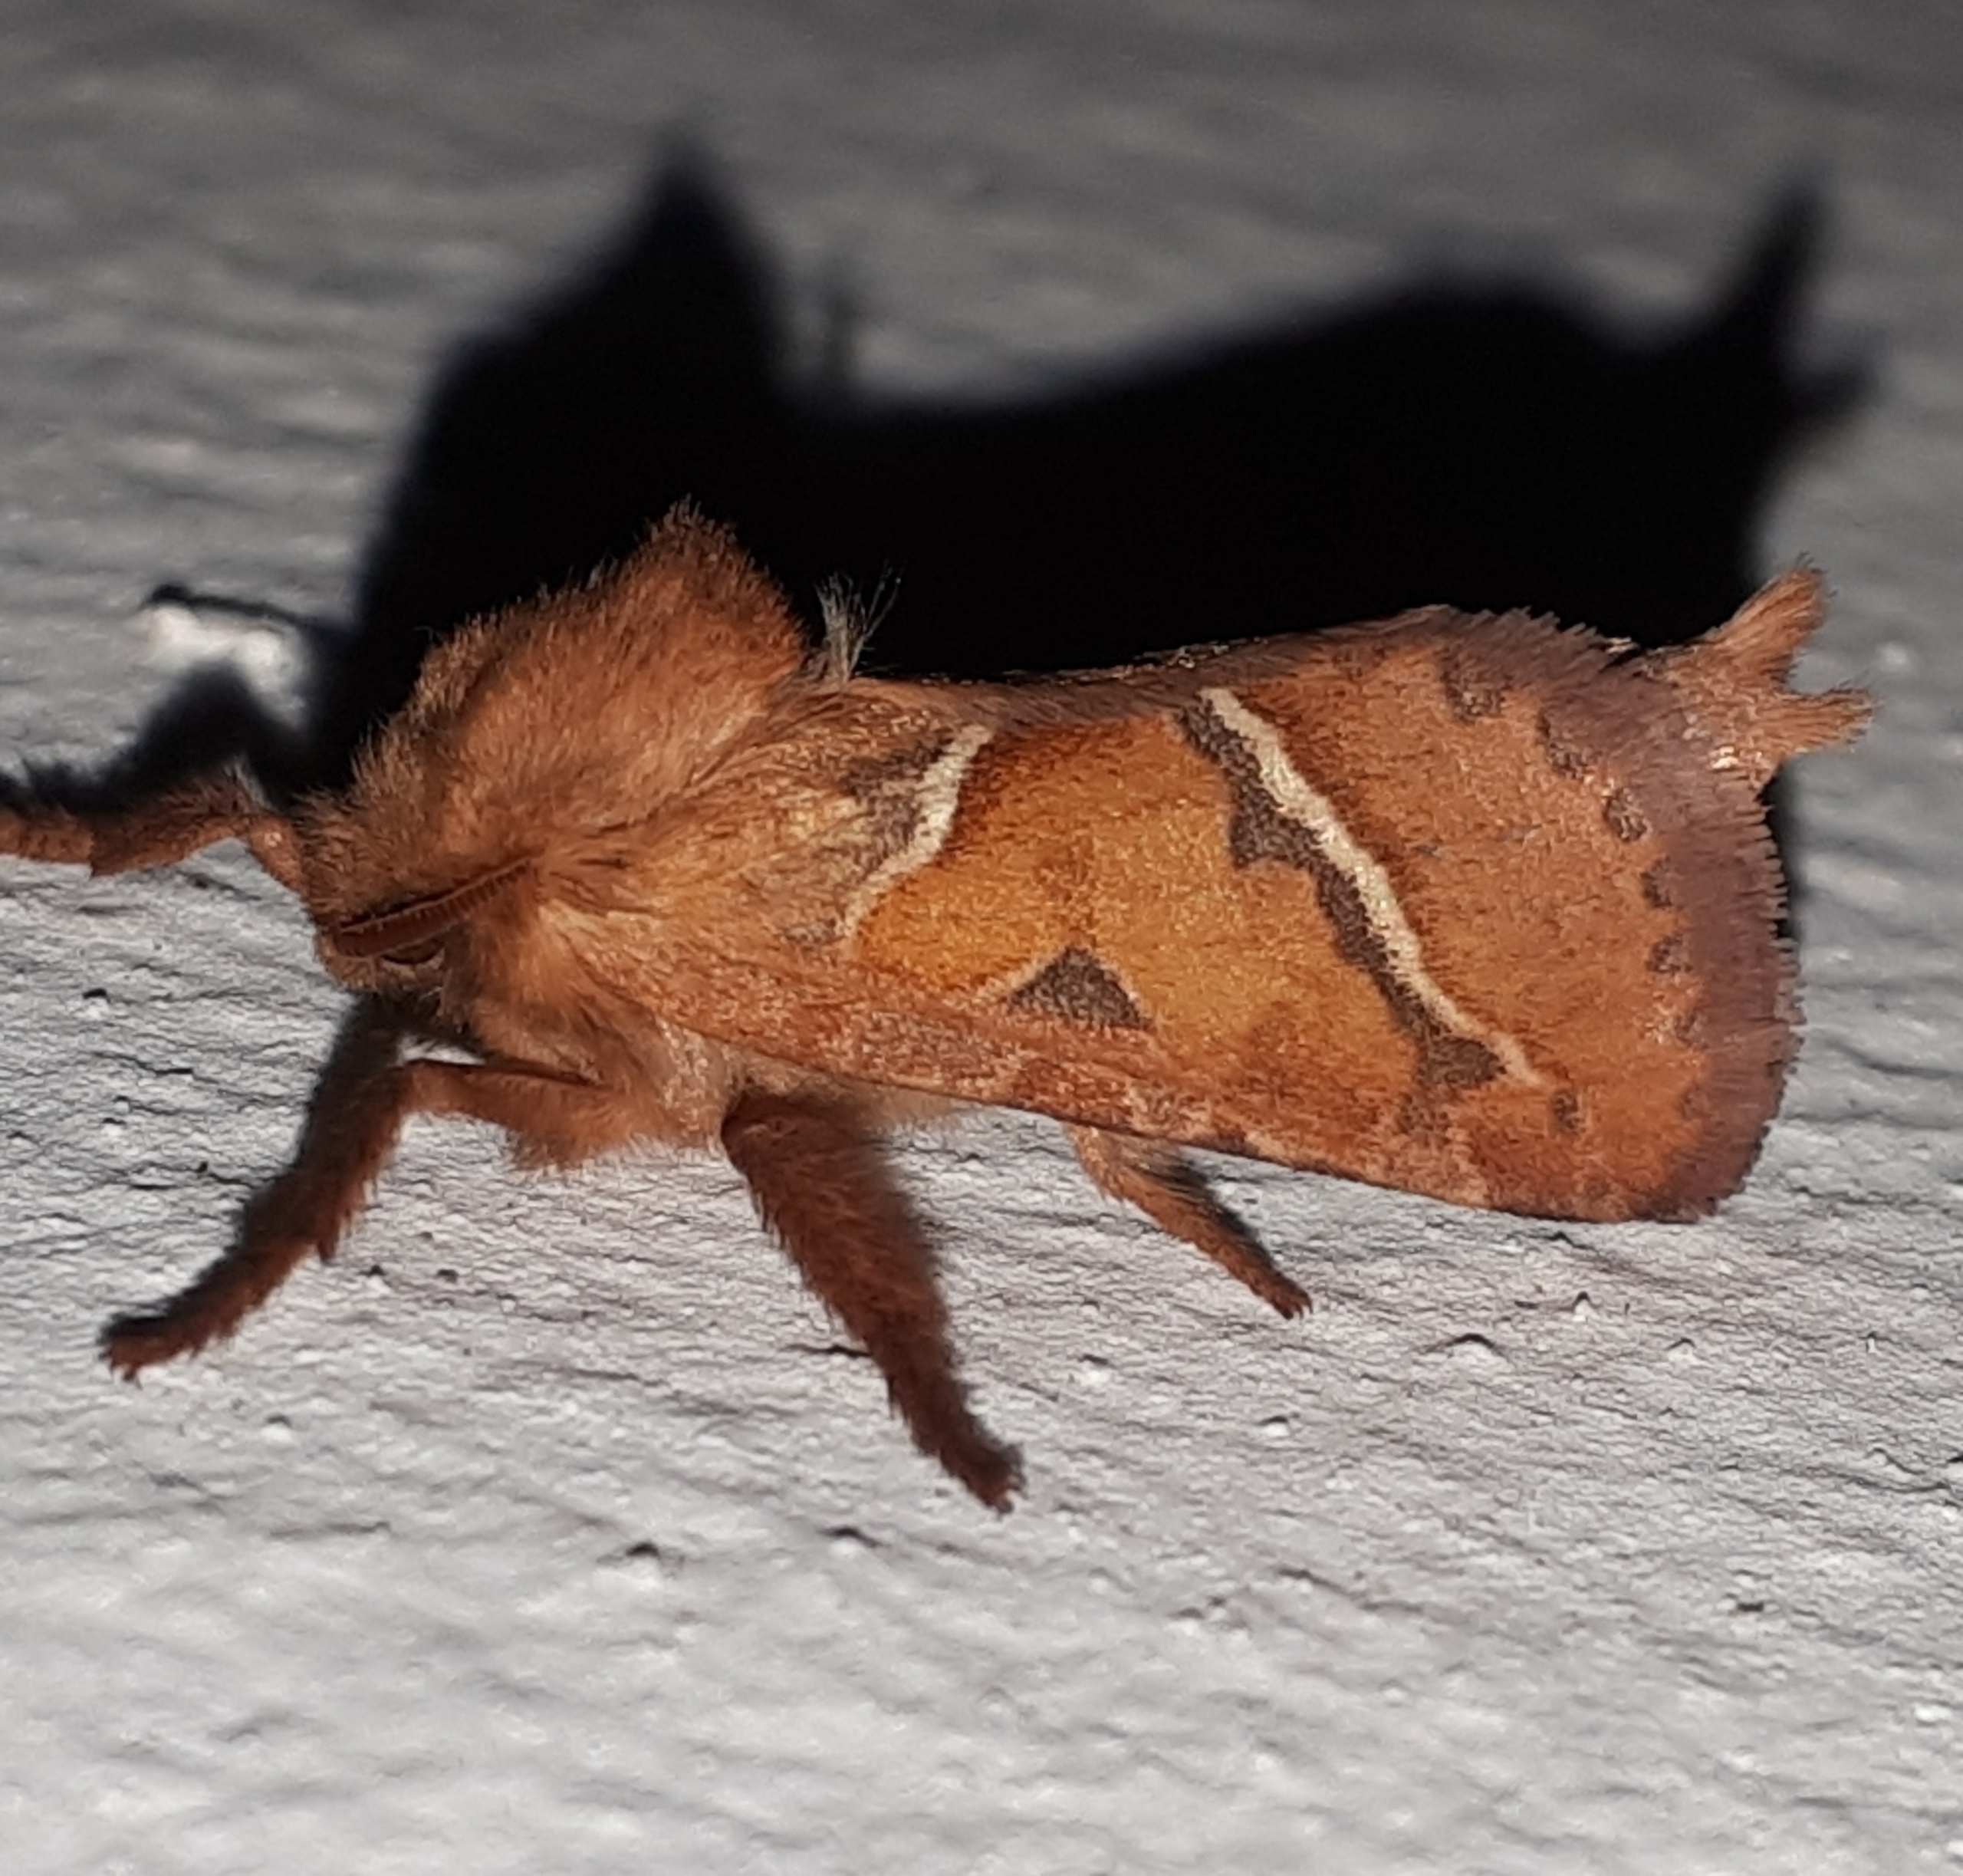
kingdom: Animalia
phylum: Arthropoda
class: Insecta
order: Lepidoptera
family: Hepialidae
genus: Triodia
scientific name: Triodia sylvina
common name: Skræpperodæder
